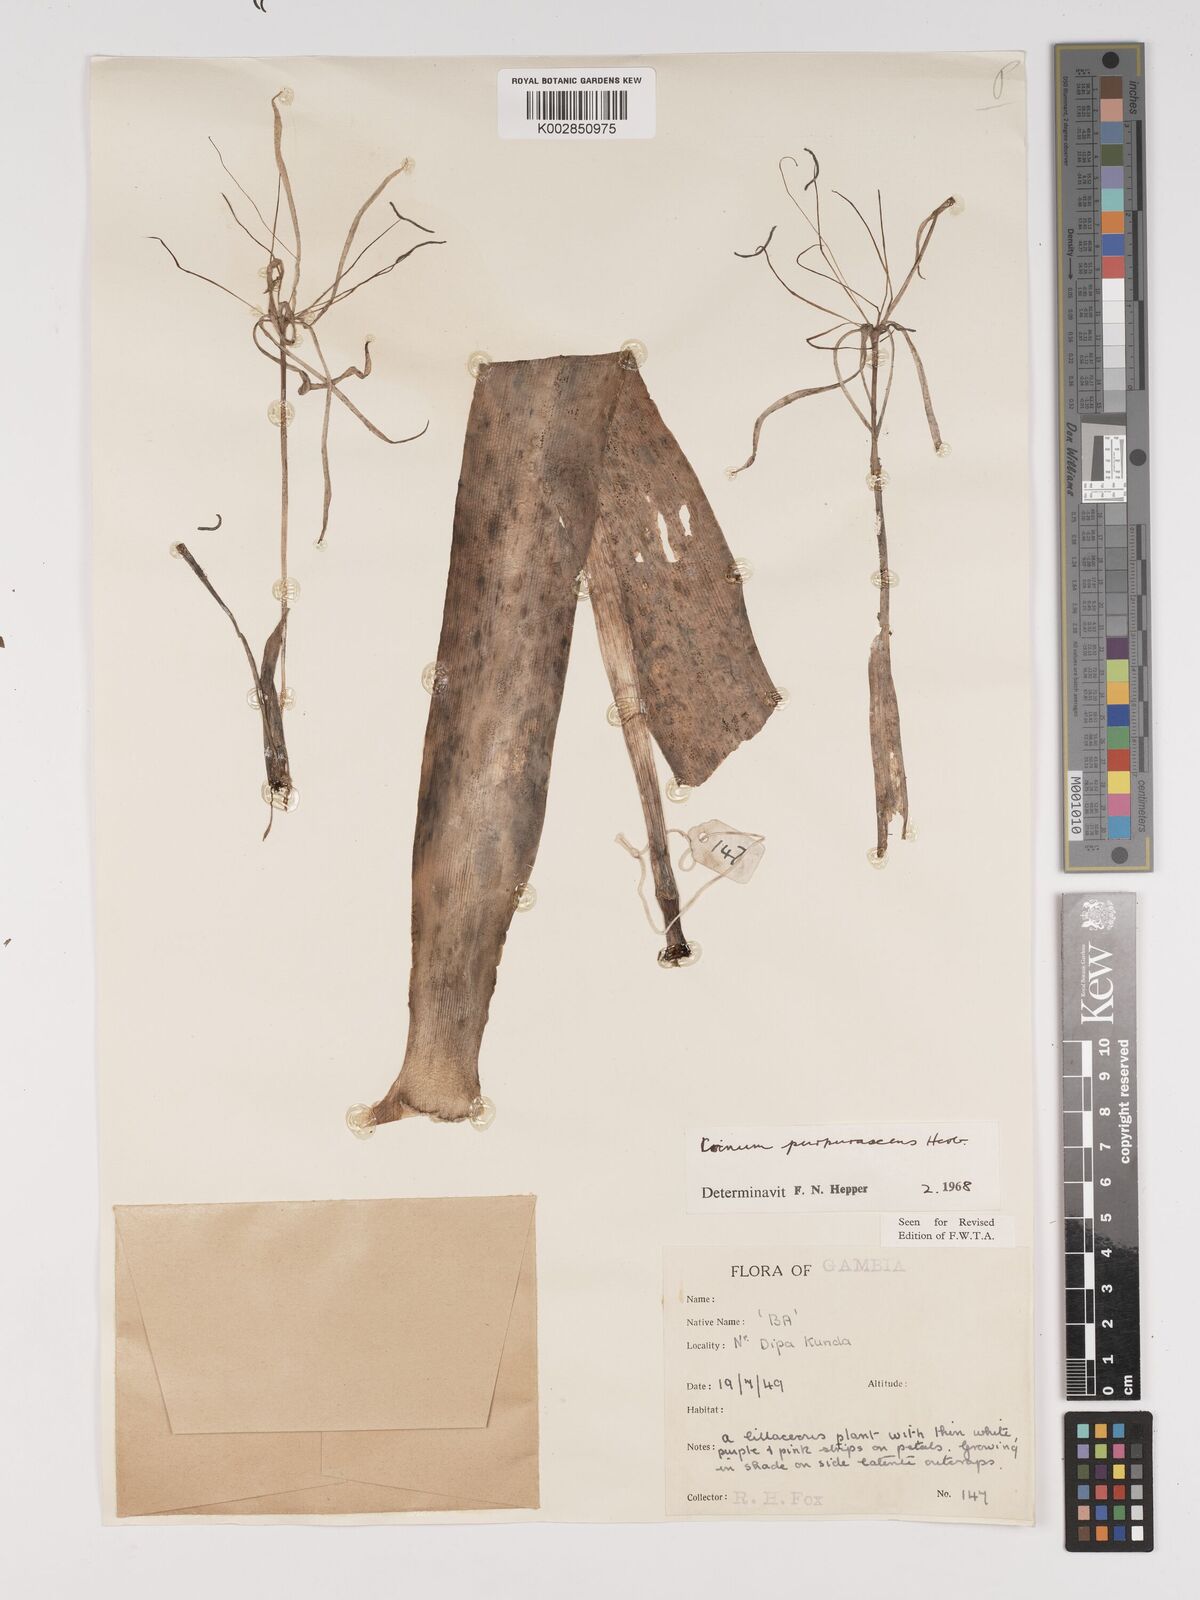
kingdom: Plantae
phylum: Tracheophyta
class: Liliopsida
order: Asparagales
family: Amaryllidaceae
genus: Crinum
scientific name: Crinum purpurascens
